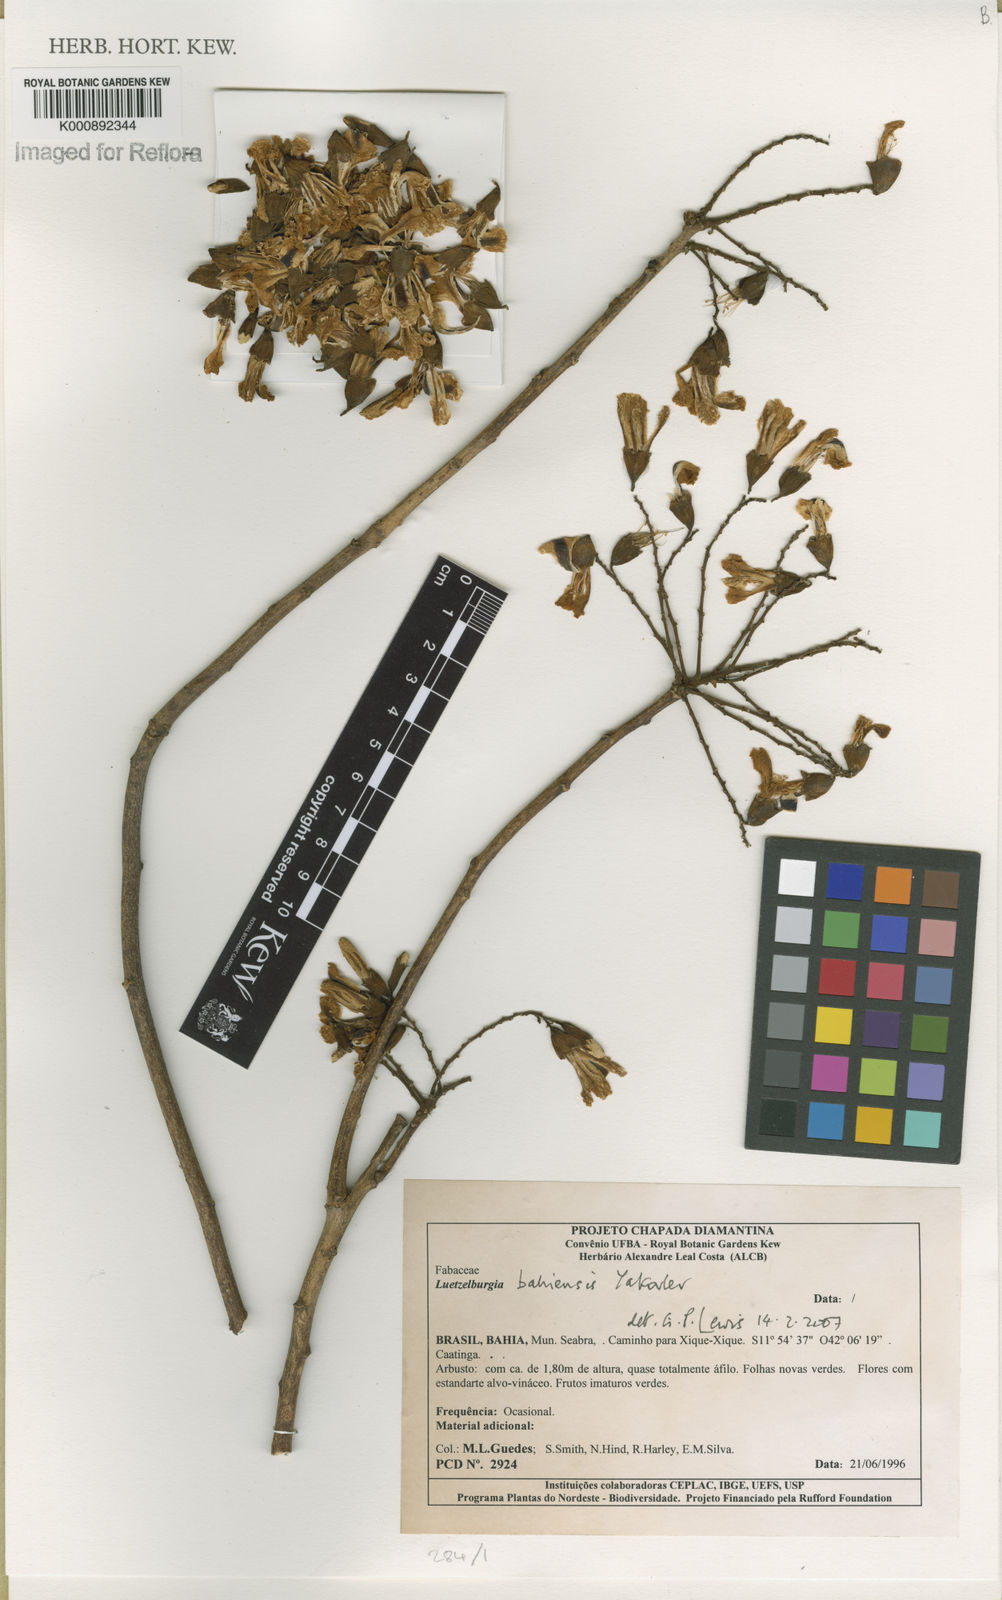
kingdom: Plantae
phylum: Tracheophyta
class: Magnoliopsida
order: Fabales
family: Fabaceae
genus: Luetzelburgia
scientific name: Luetzelburgia bahiensis
